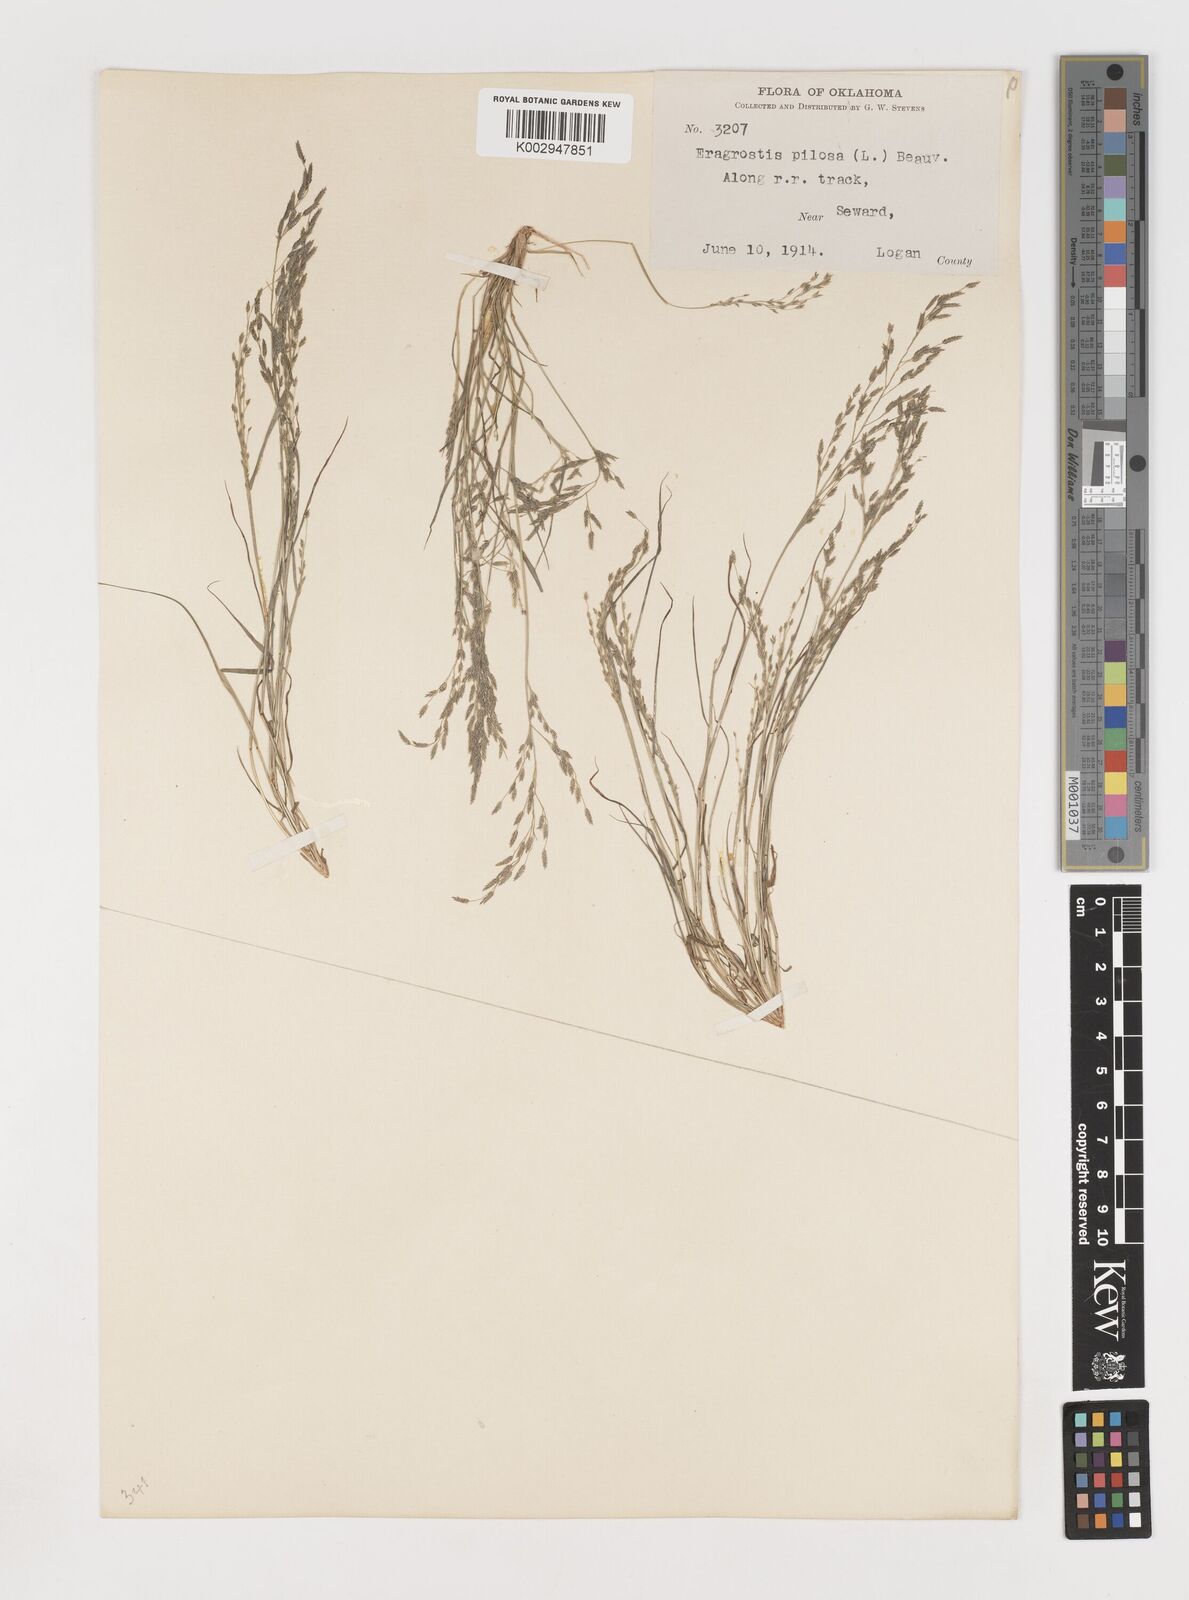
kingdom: Plantae
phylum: Tracheophyta
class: Liliopsida
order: Poales
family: Poaceae
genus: Eragrostis
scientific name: Eragrostis pectinacea
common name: Tufted lovegrass
